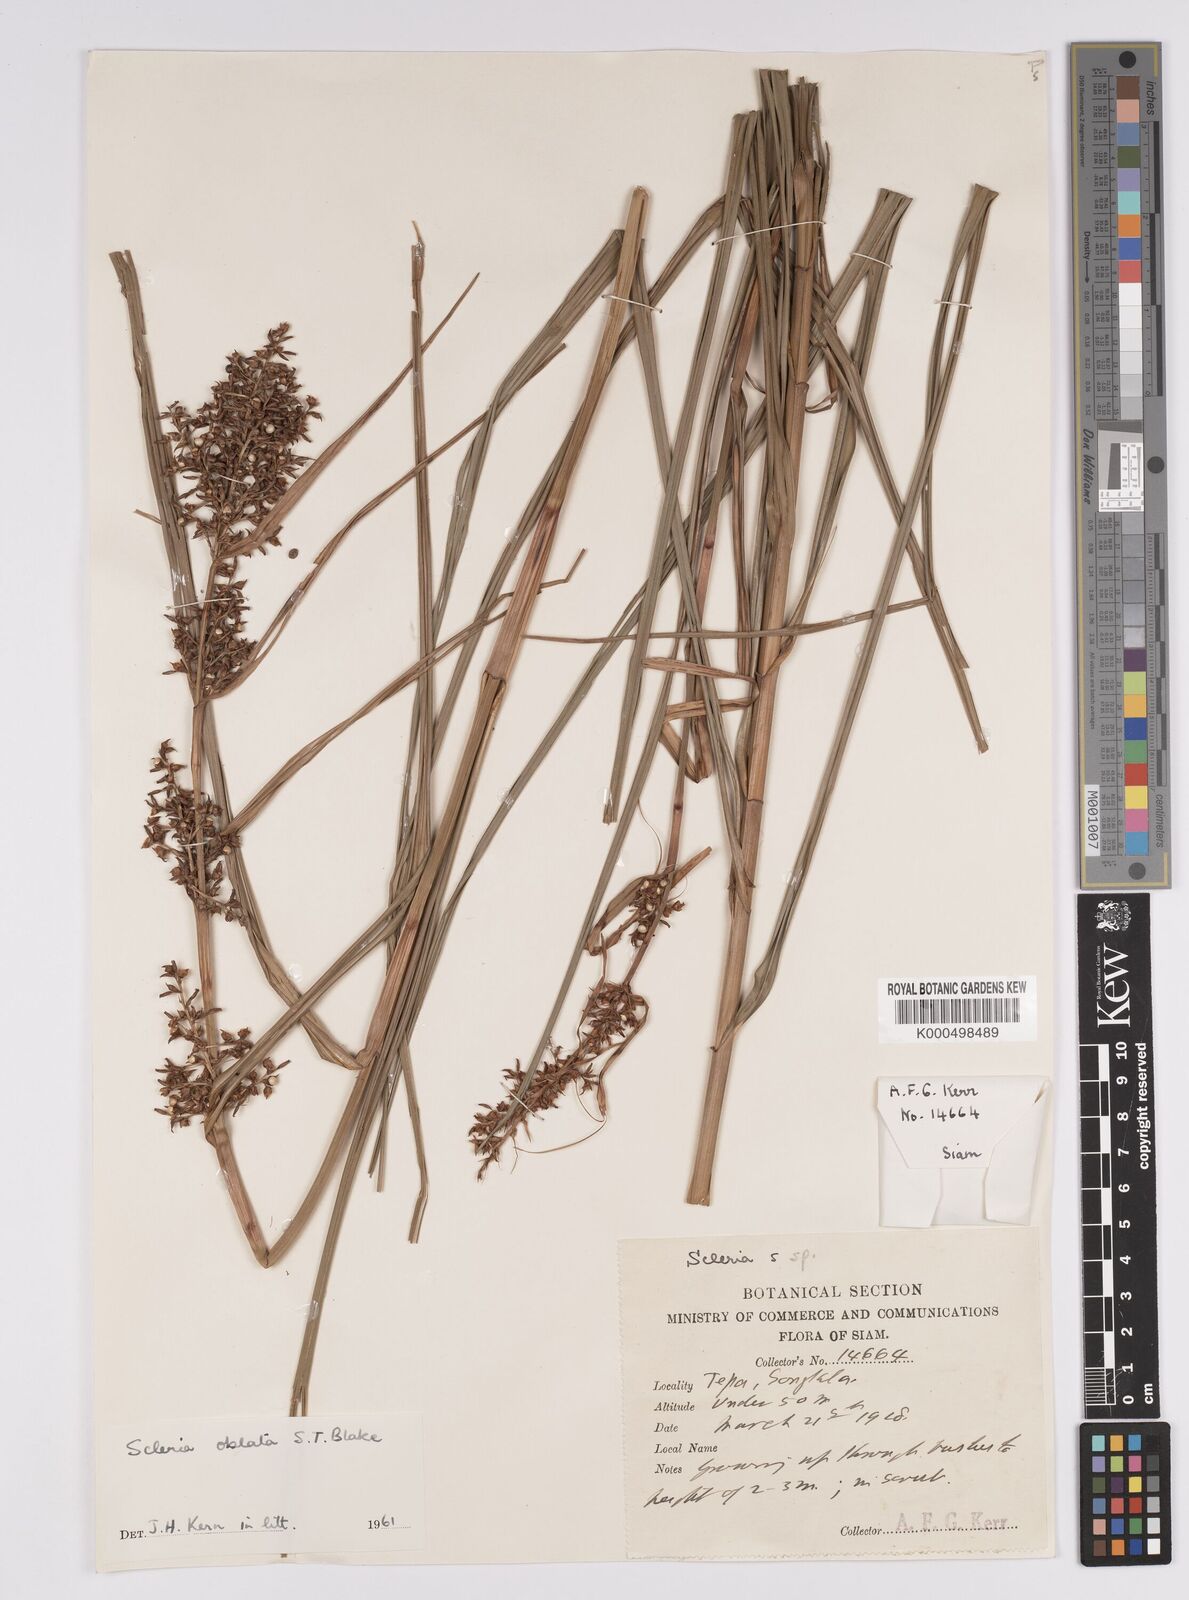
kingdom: Plantae
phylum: Tracheophyta
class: Liliopsida
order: Poales
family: Cyperaceae
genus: Scleria
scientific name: Scleria oblata
